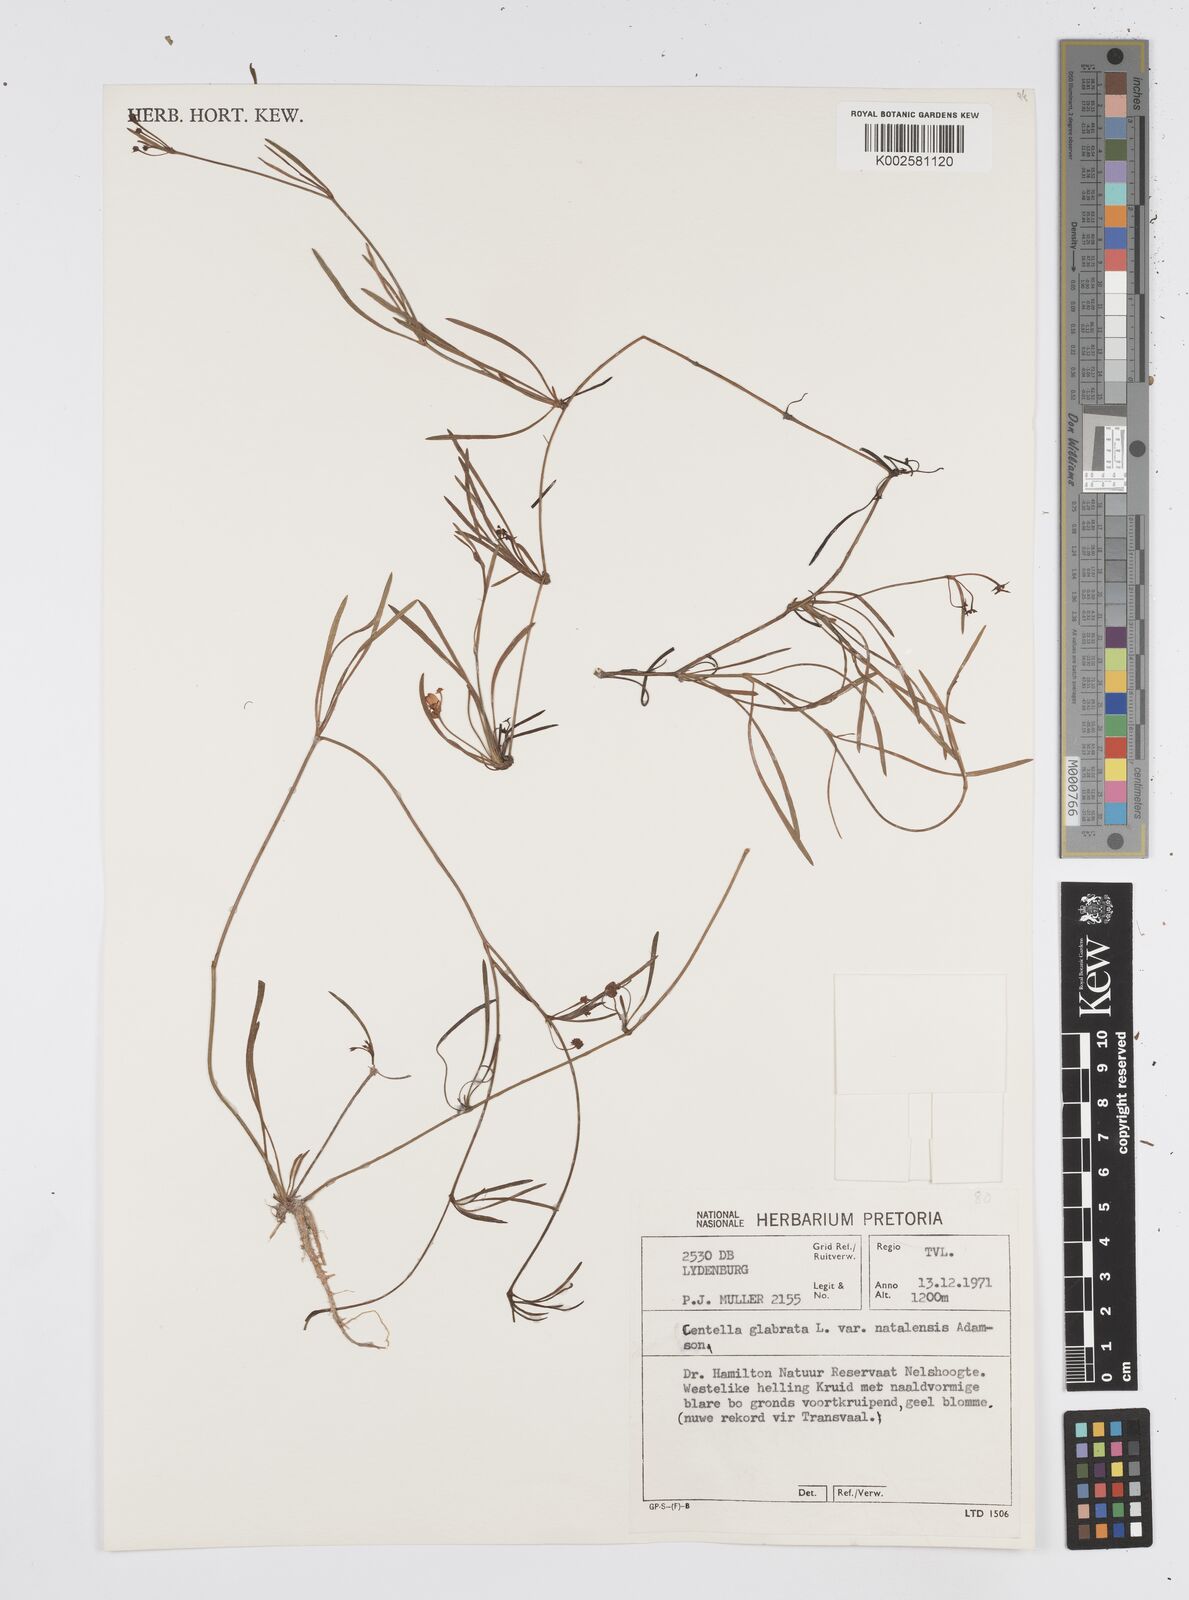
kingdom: Plantae
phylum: Tracheophyta
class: Magnoliopsida
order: Apiales
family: Apiaceae
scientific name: Apiaceae
